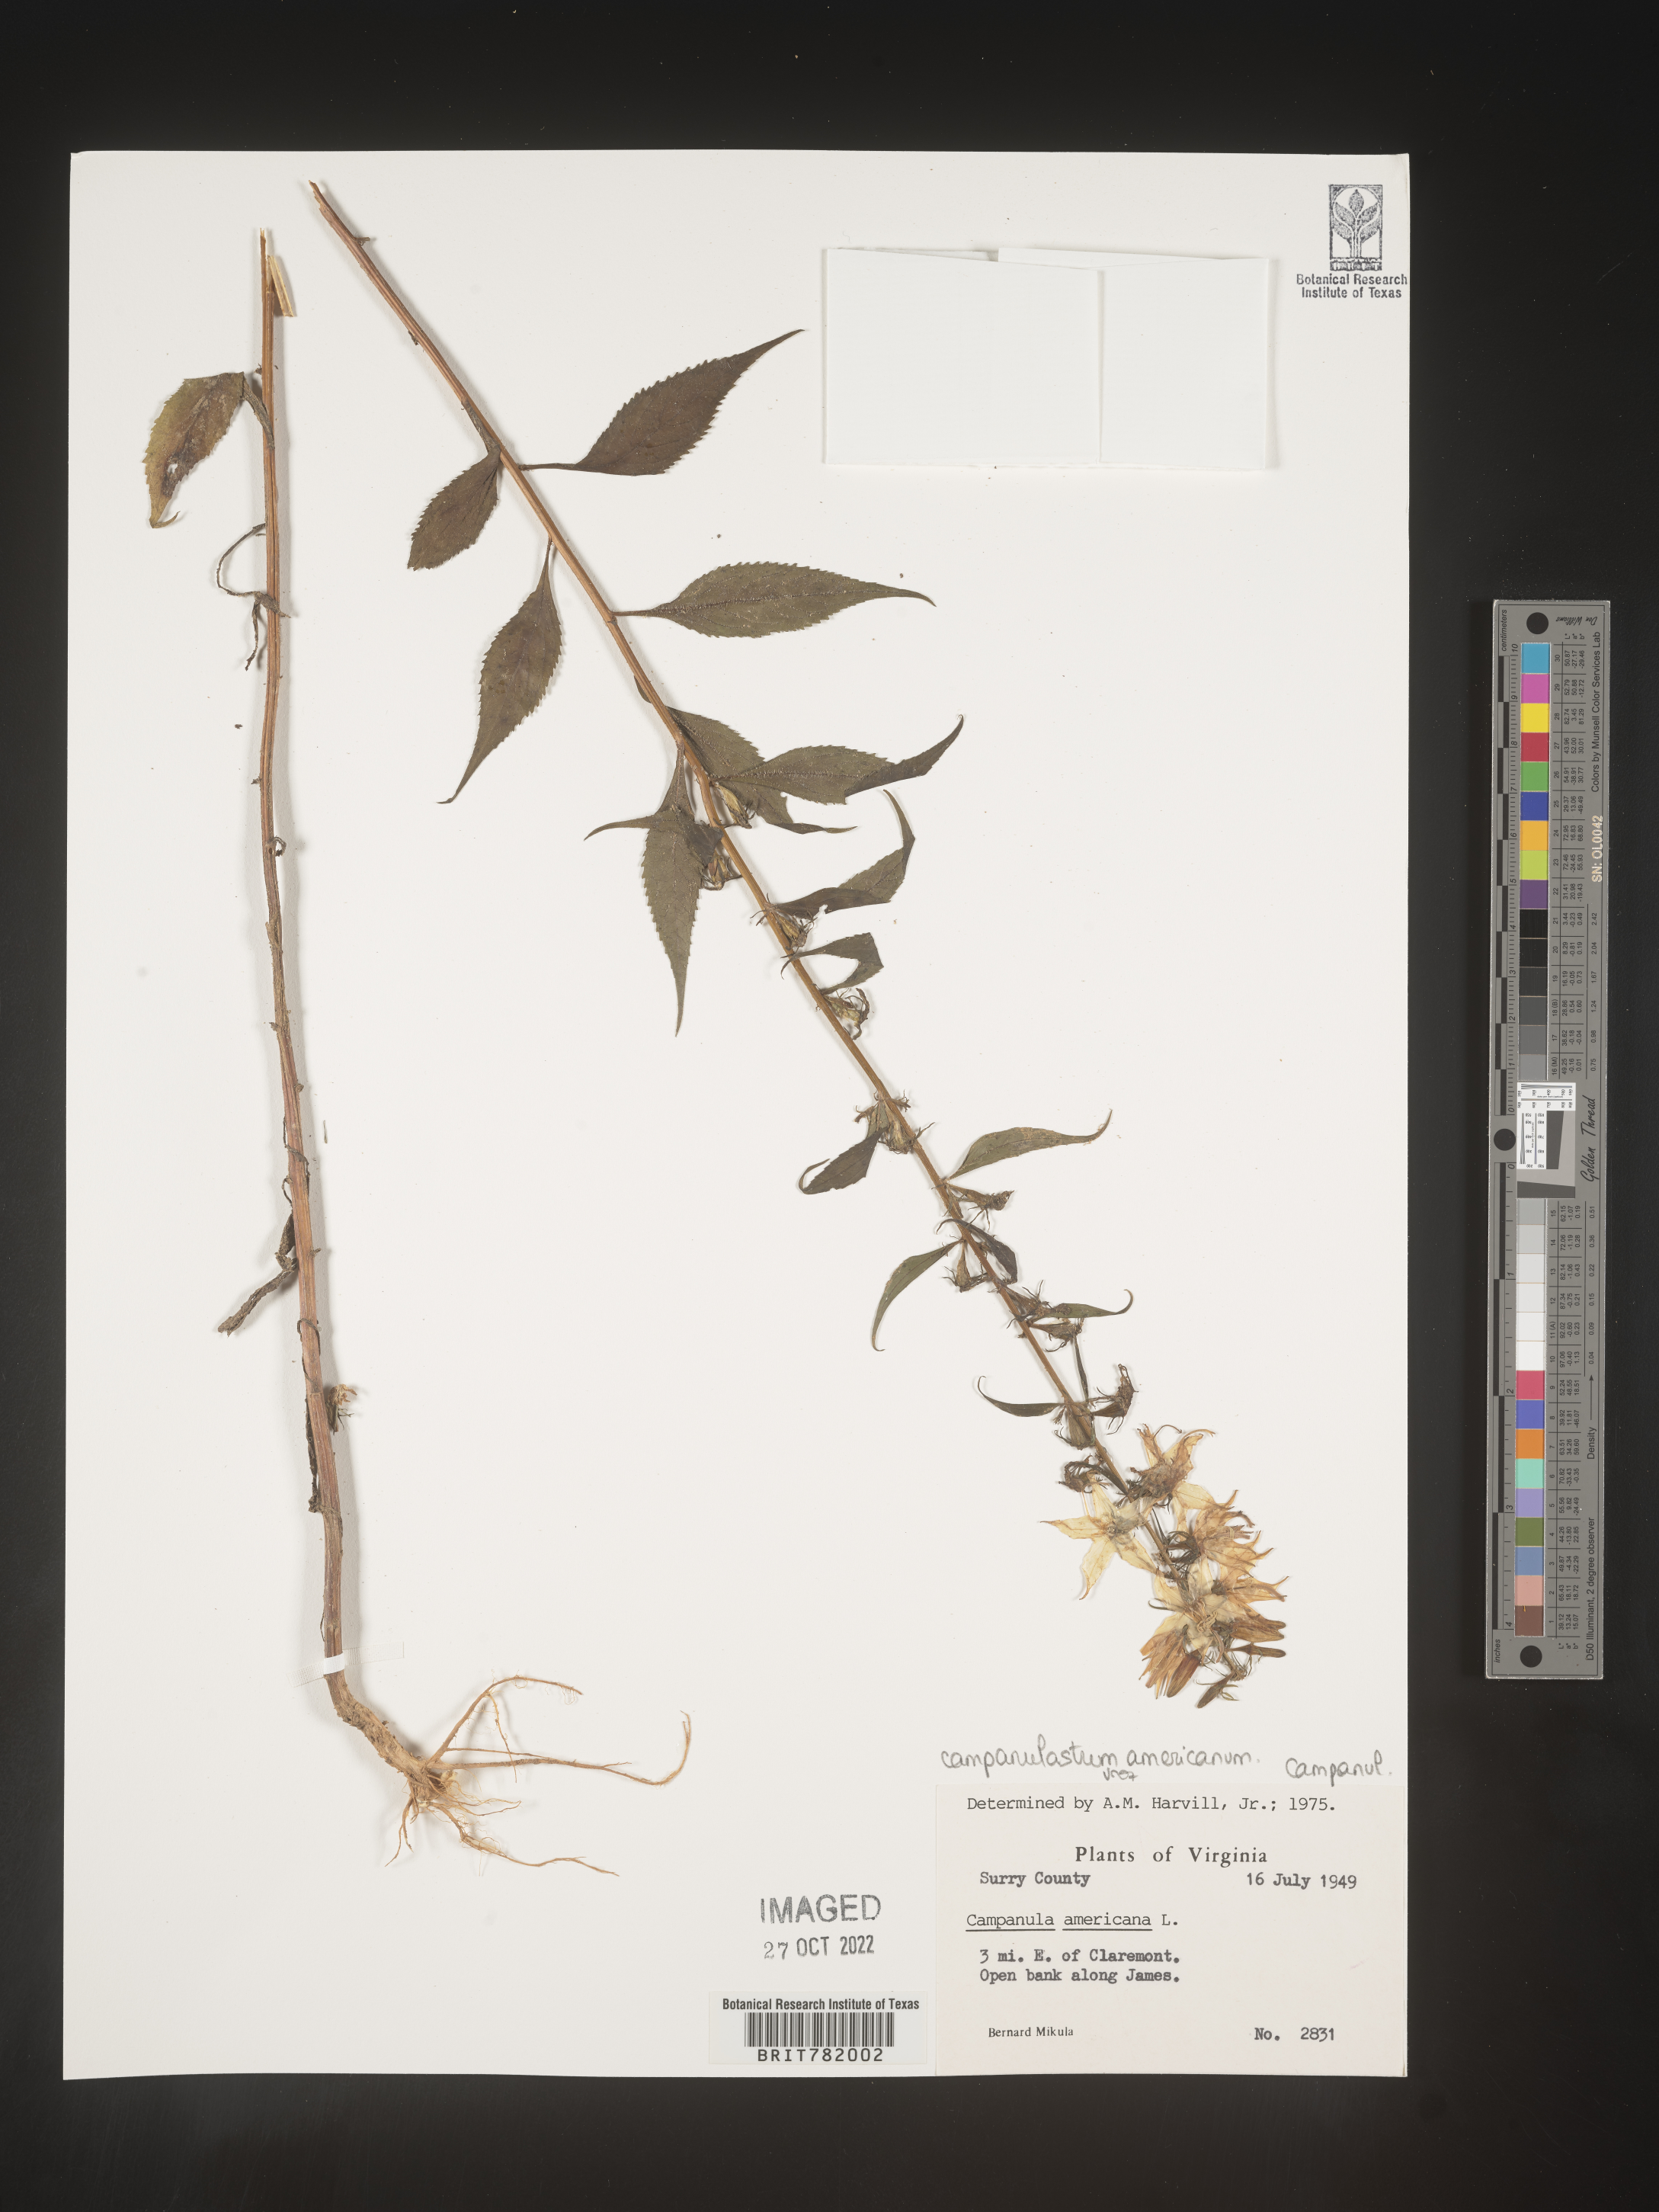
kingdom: Plantae
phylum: Tracheophyta
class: Magnoliopsida
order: Asterales
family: Campanulaceae
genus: Campanulastrum
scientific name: Campanulastrum
